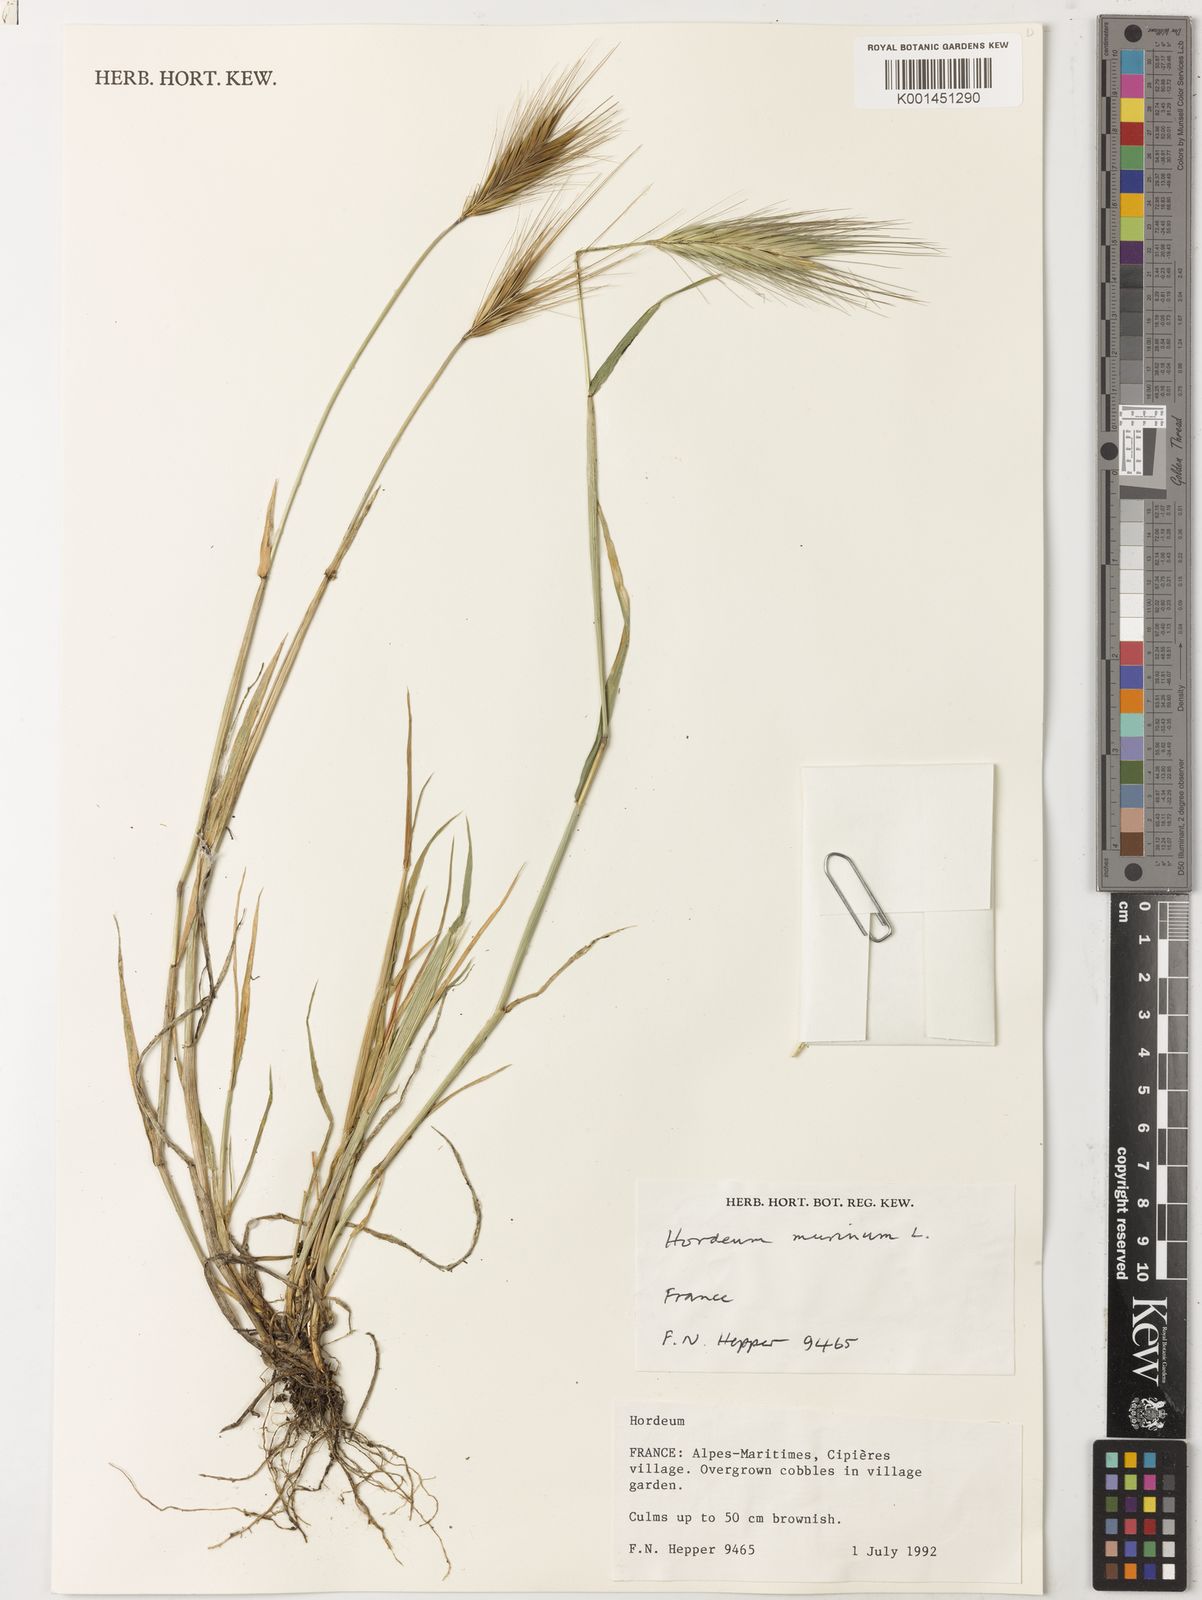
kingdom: Plantae
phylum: Tracheophyta
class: Liliopsida
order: Poales
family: Poaceae
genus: Hordeum
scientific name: Hordeum murinum
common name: Wall barley
